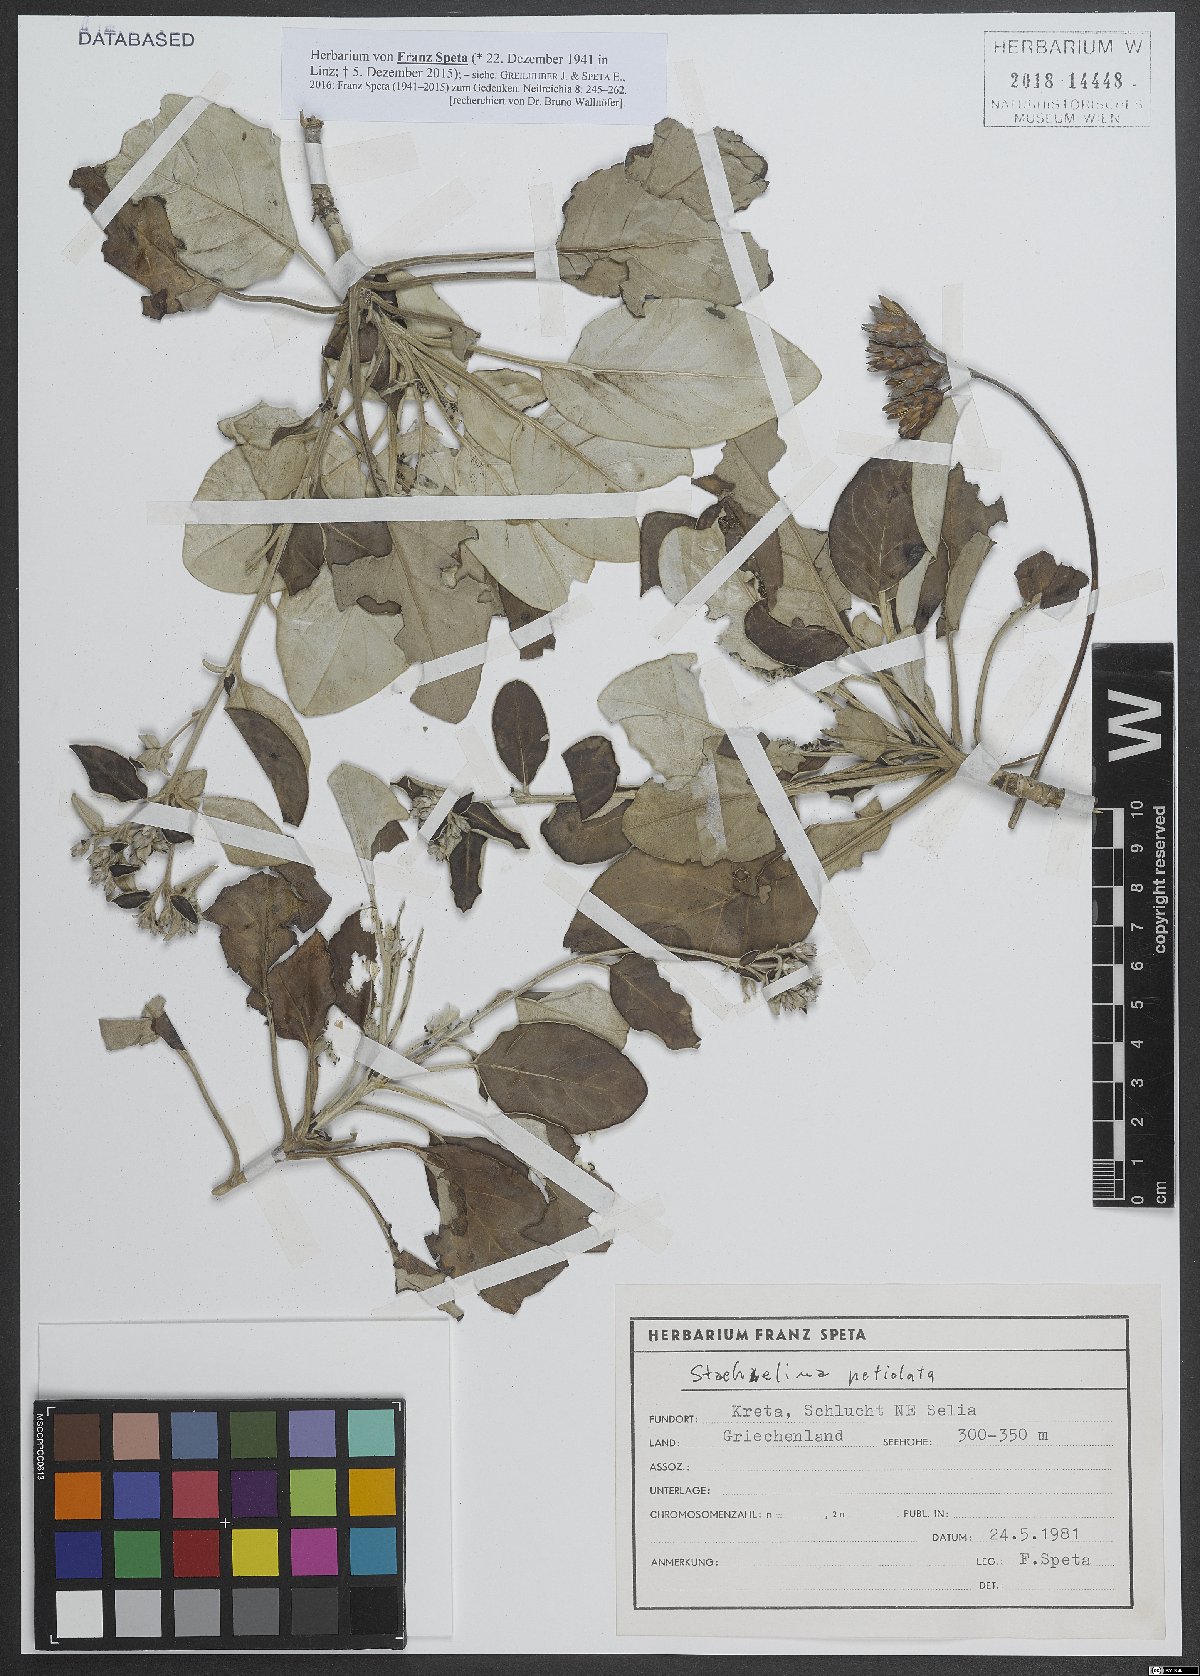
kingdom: Plantae
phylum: Tracheophyta
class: Magnoliopsida
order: Asterales
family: Asteraceae
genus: Staehelina
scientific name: Staehelina petiolata
